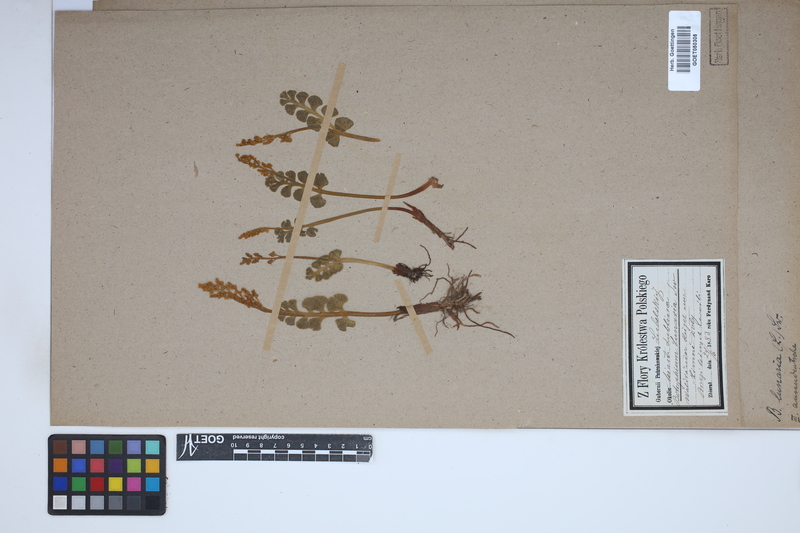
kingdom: Plantae
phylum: Tracheophyta
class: Polypodiopsida
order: Ophioglossales
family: Ophioglossaceae
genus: Botrychium
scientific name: Botrychium lunaria
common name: Moonwort
